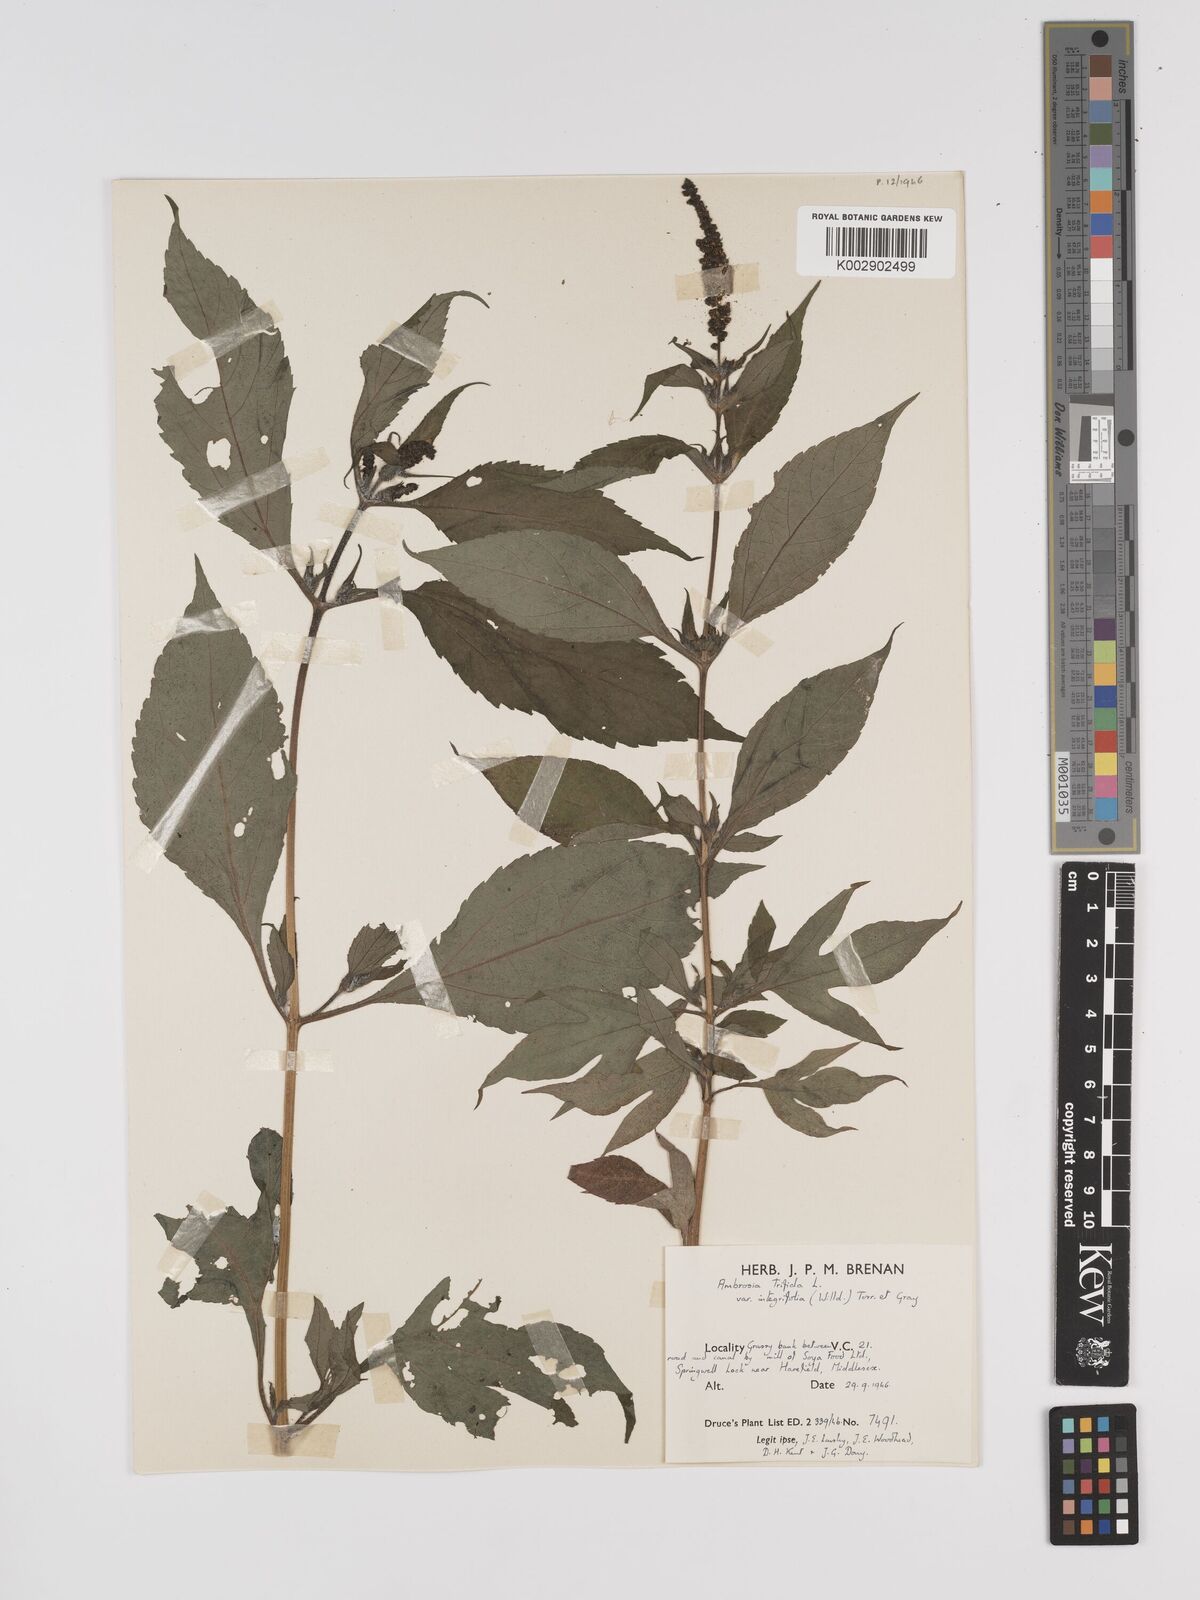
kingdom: Plantae
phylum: Tracheophyta
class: Magnoliopsida
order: Asterales
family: Asteraceae
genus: Ambrosia
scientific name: Ambrosia trifida
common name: Giant ragweed
